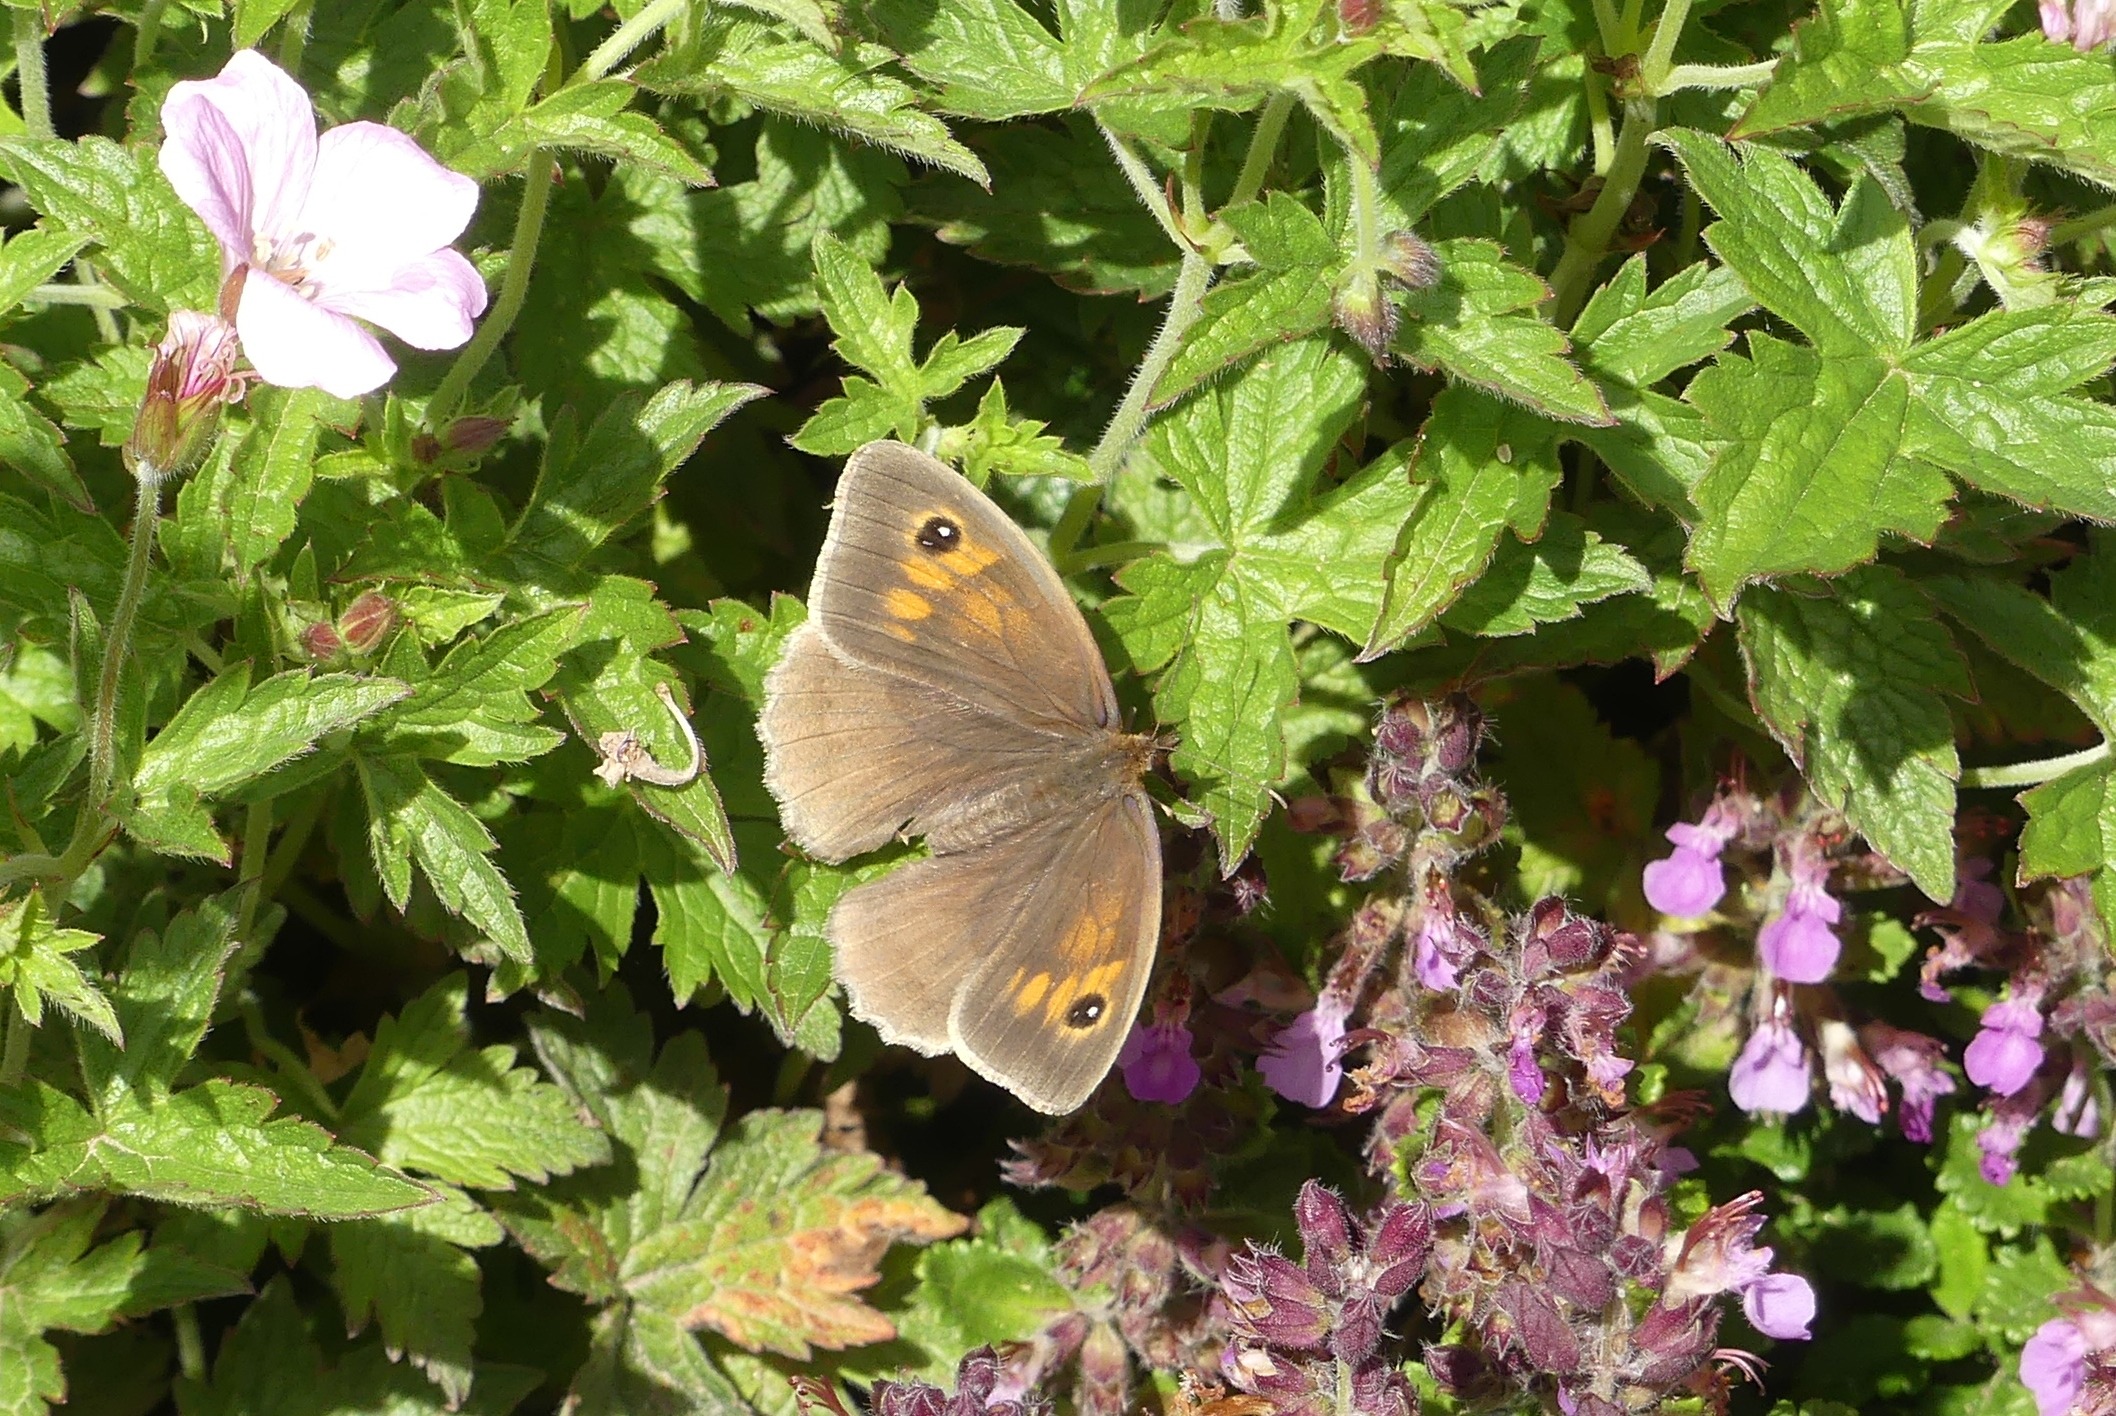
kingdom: Animalia
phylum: Arthropoda
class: Insecta
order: Lepidoptera
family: Nymphalidae
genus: Maniola
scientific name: Maniola jurtina
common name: Græsrandøje
